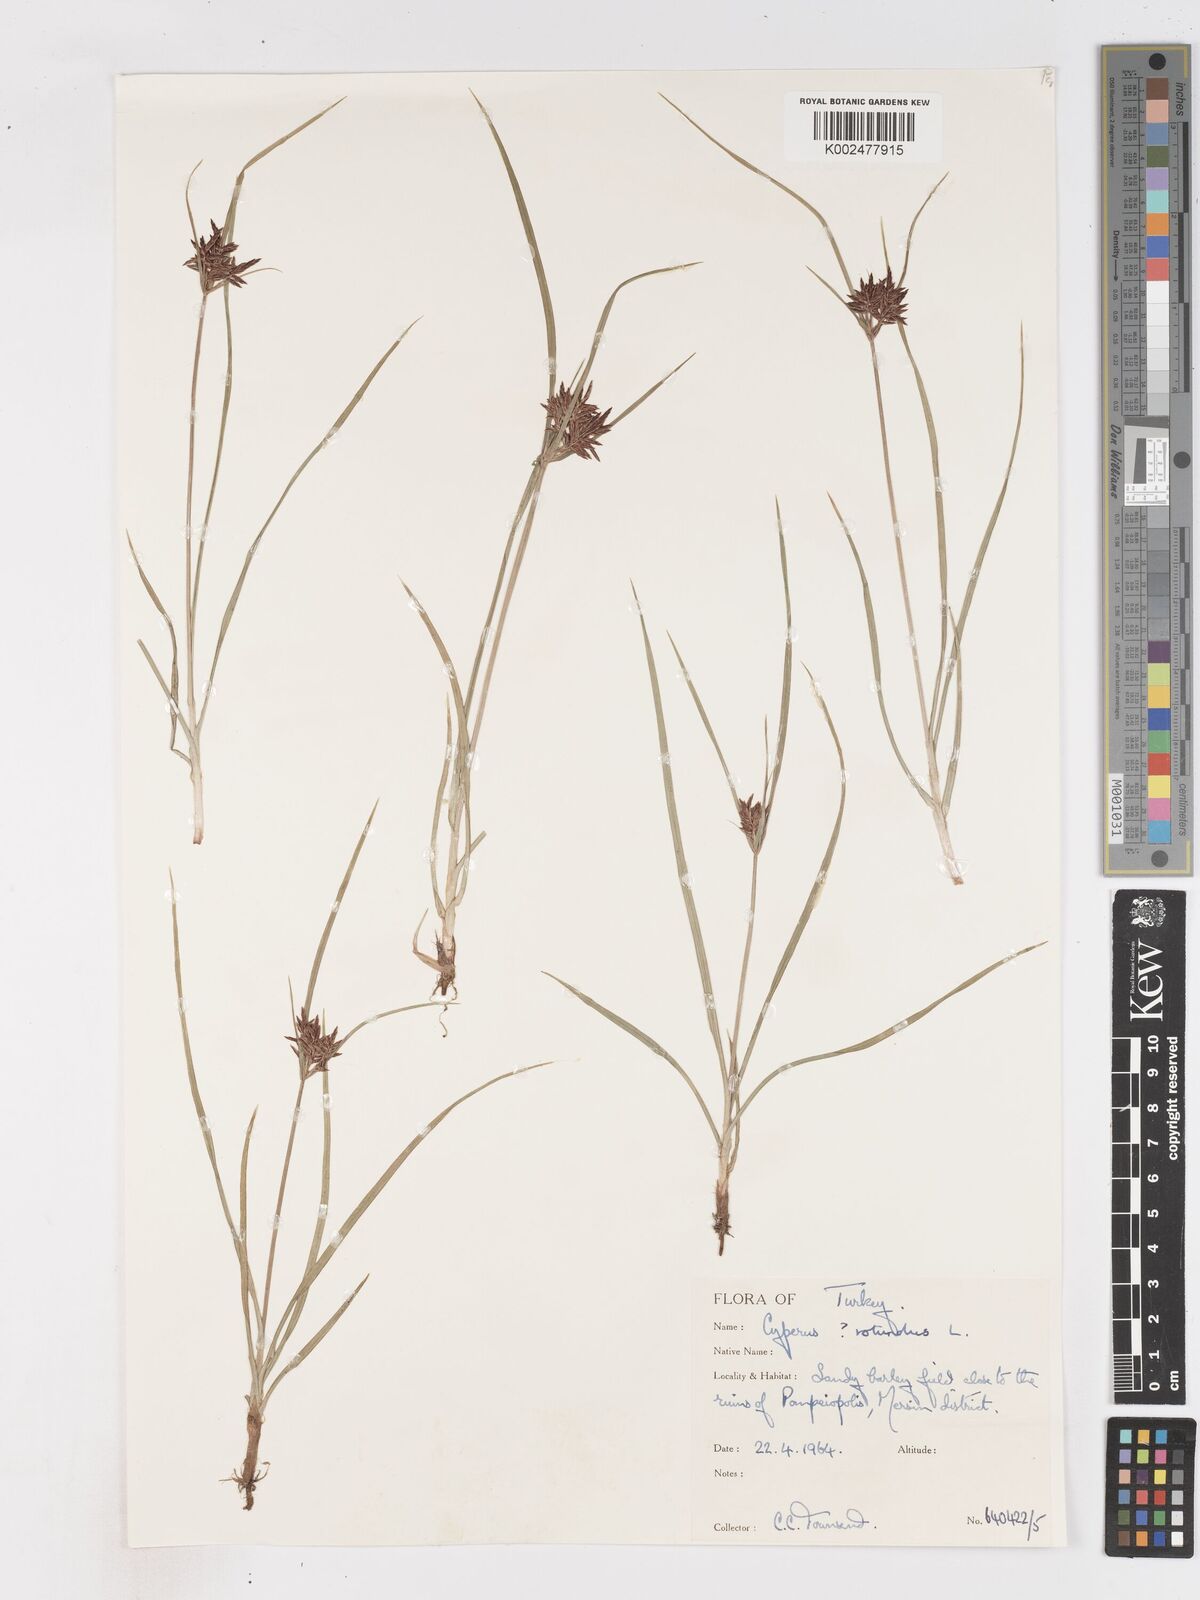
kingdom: Plantae
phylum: Tracheophyta
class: Liliopsida
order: Poales
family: Cyperaceae
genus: Cyperus
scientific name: Cyperus rotundus
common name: Nutgrass
